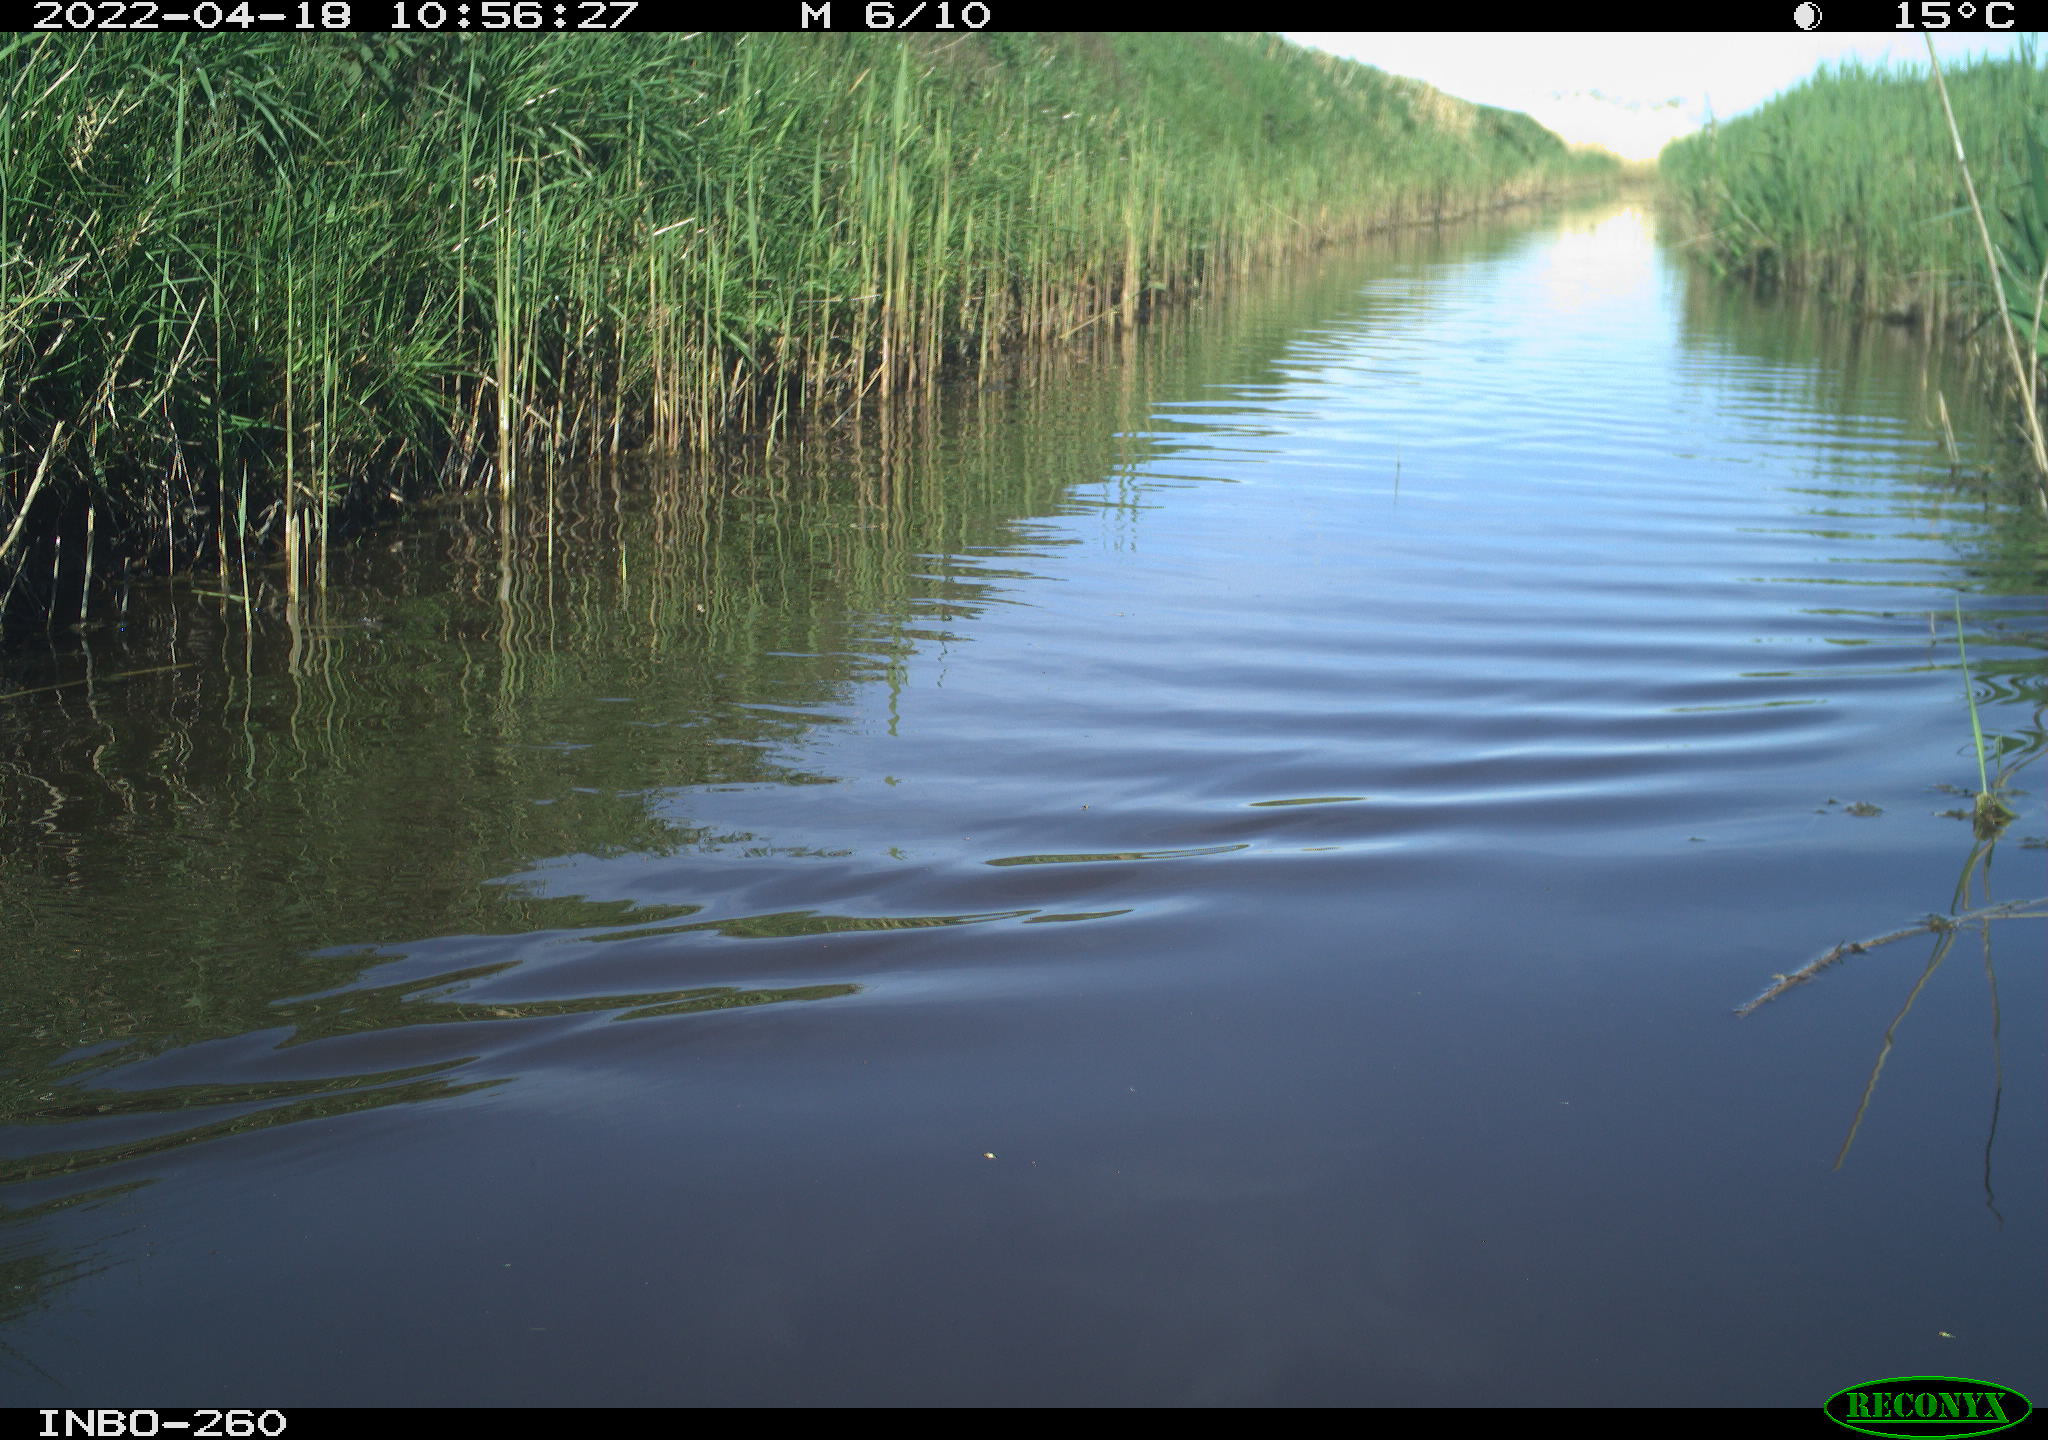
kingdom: Animalia
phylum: Chordata
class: Aves
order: Gruiformes
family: Rallidae
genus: Fulica
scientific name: Fulica atra
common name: Eurasian coot
